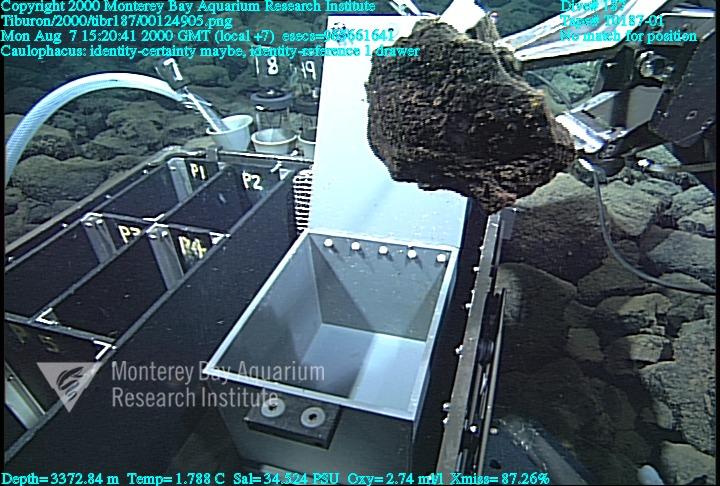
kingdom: Animalia
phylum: Porifera
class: Hexactinellida
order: Lyssacinosida
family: Rossellidae
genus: Caulophacus
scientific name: Caulophacus
